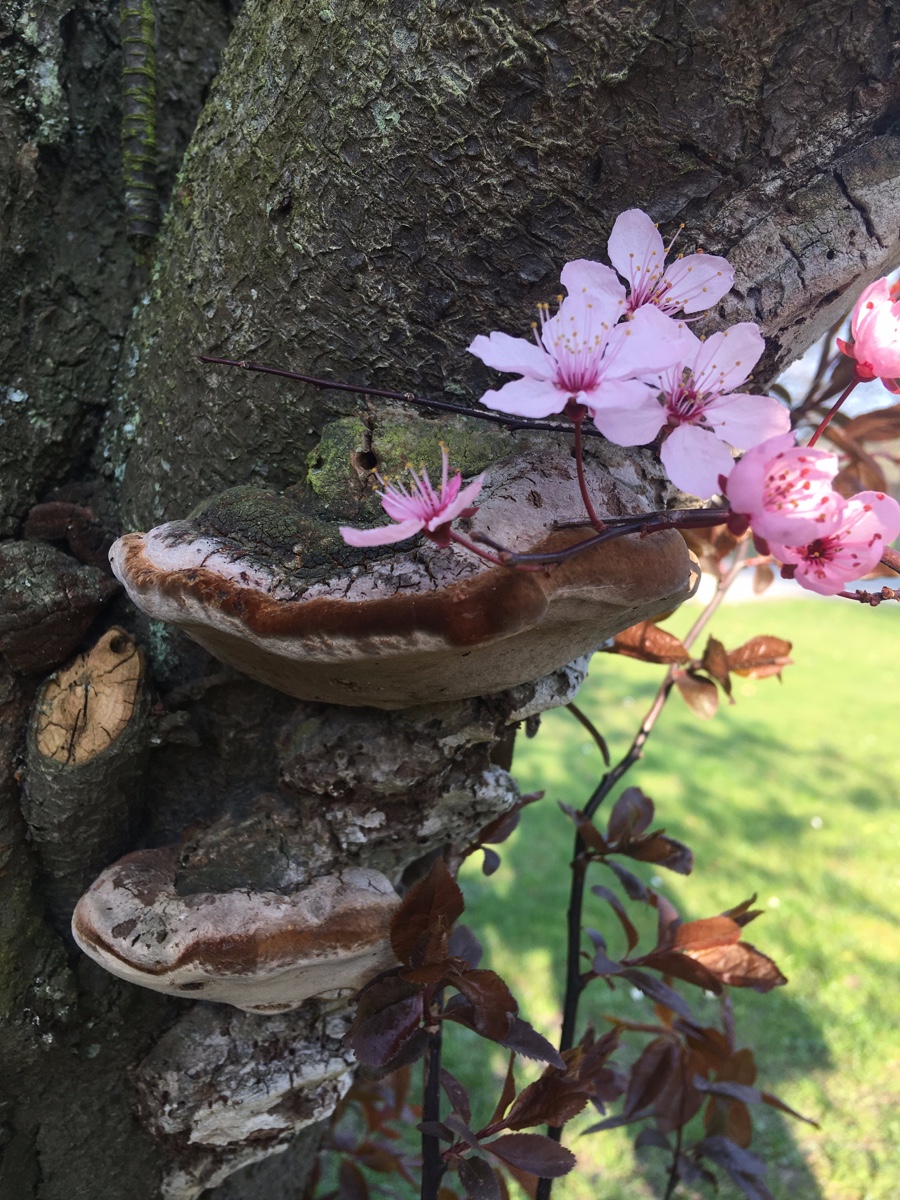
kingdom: Fungi
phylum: Basidiomycota
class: Agaricomycetes
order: Hymenochaetales
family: Hymenochaetaceae
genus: Phellinus
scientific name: Phellinus pomaceus
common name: blomme-ildporesvamp
